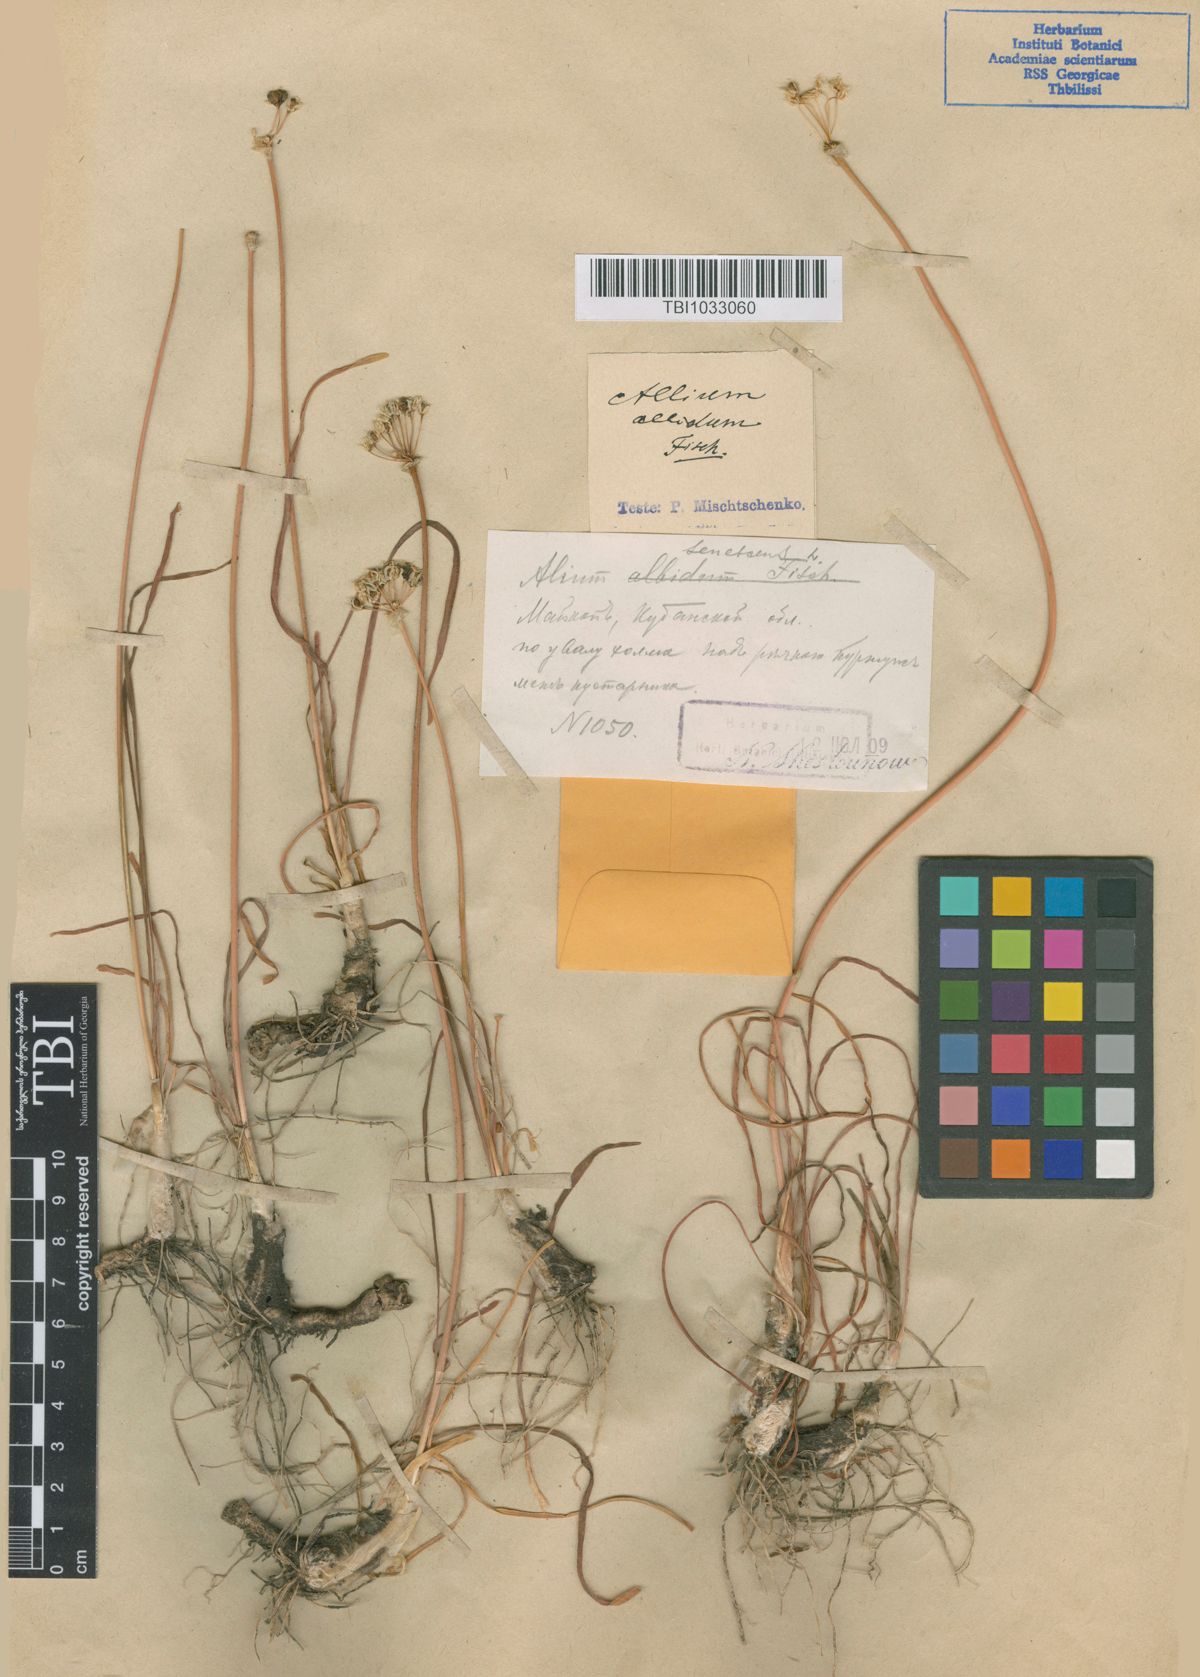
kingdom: Plantae
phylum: Tracheophyta
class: Liliopsida
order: Asparagales
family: Amaryllidaceae
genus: Allium
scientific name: Allium denudatum
